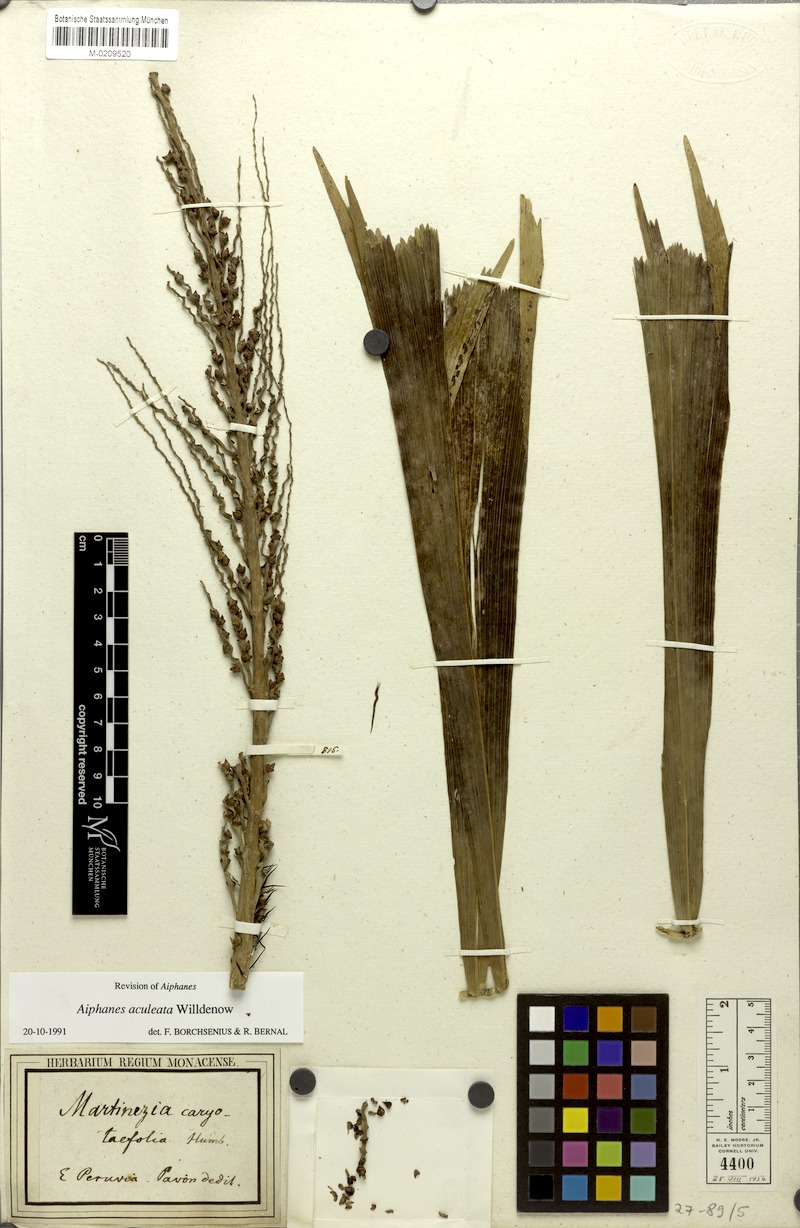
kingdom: Plantae
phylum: Tracheophyta
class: Liliopsida
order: Arecales
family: Arecaceae
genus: Aiphanes
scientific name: Aiphanes horrida
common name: Ruffle palm
